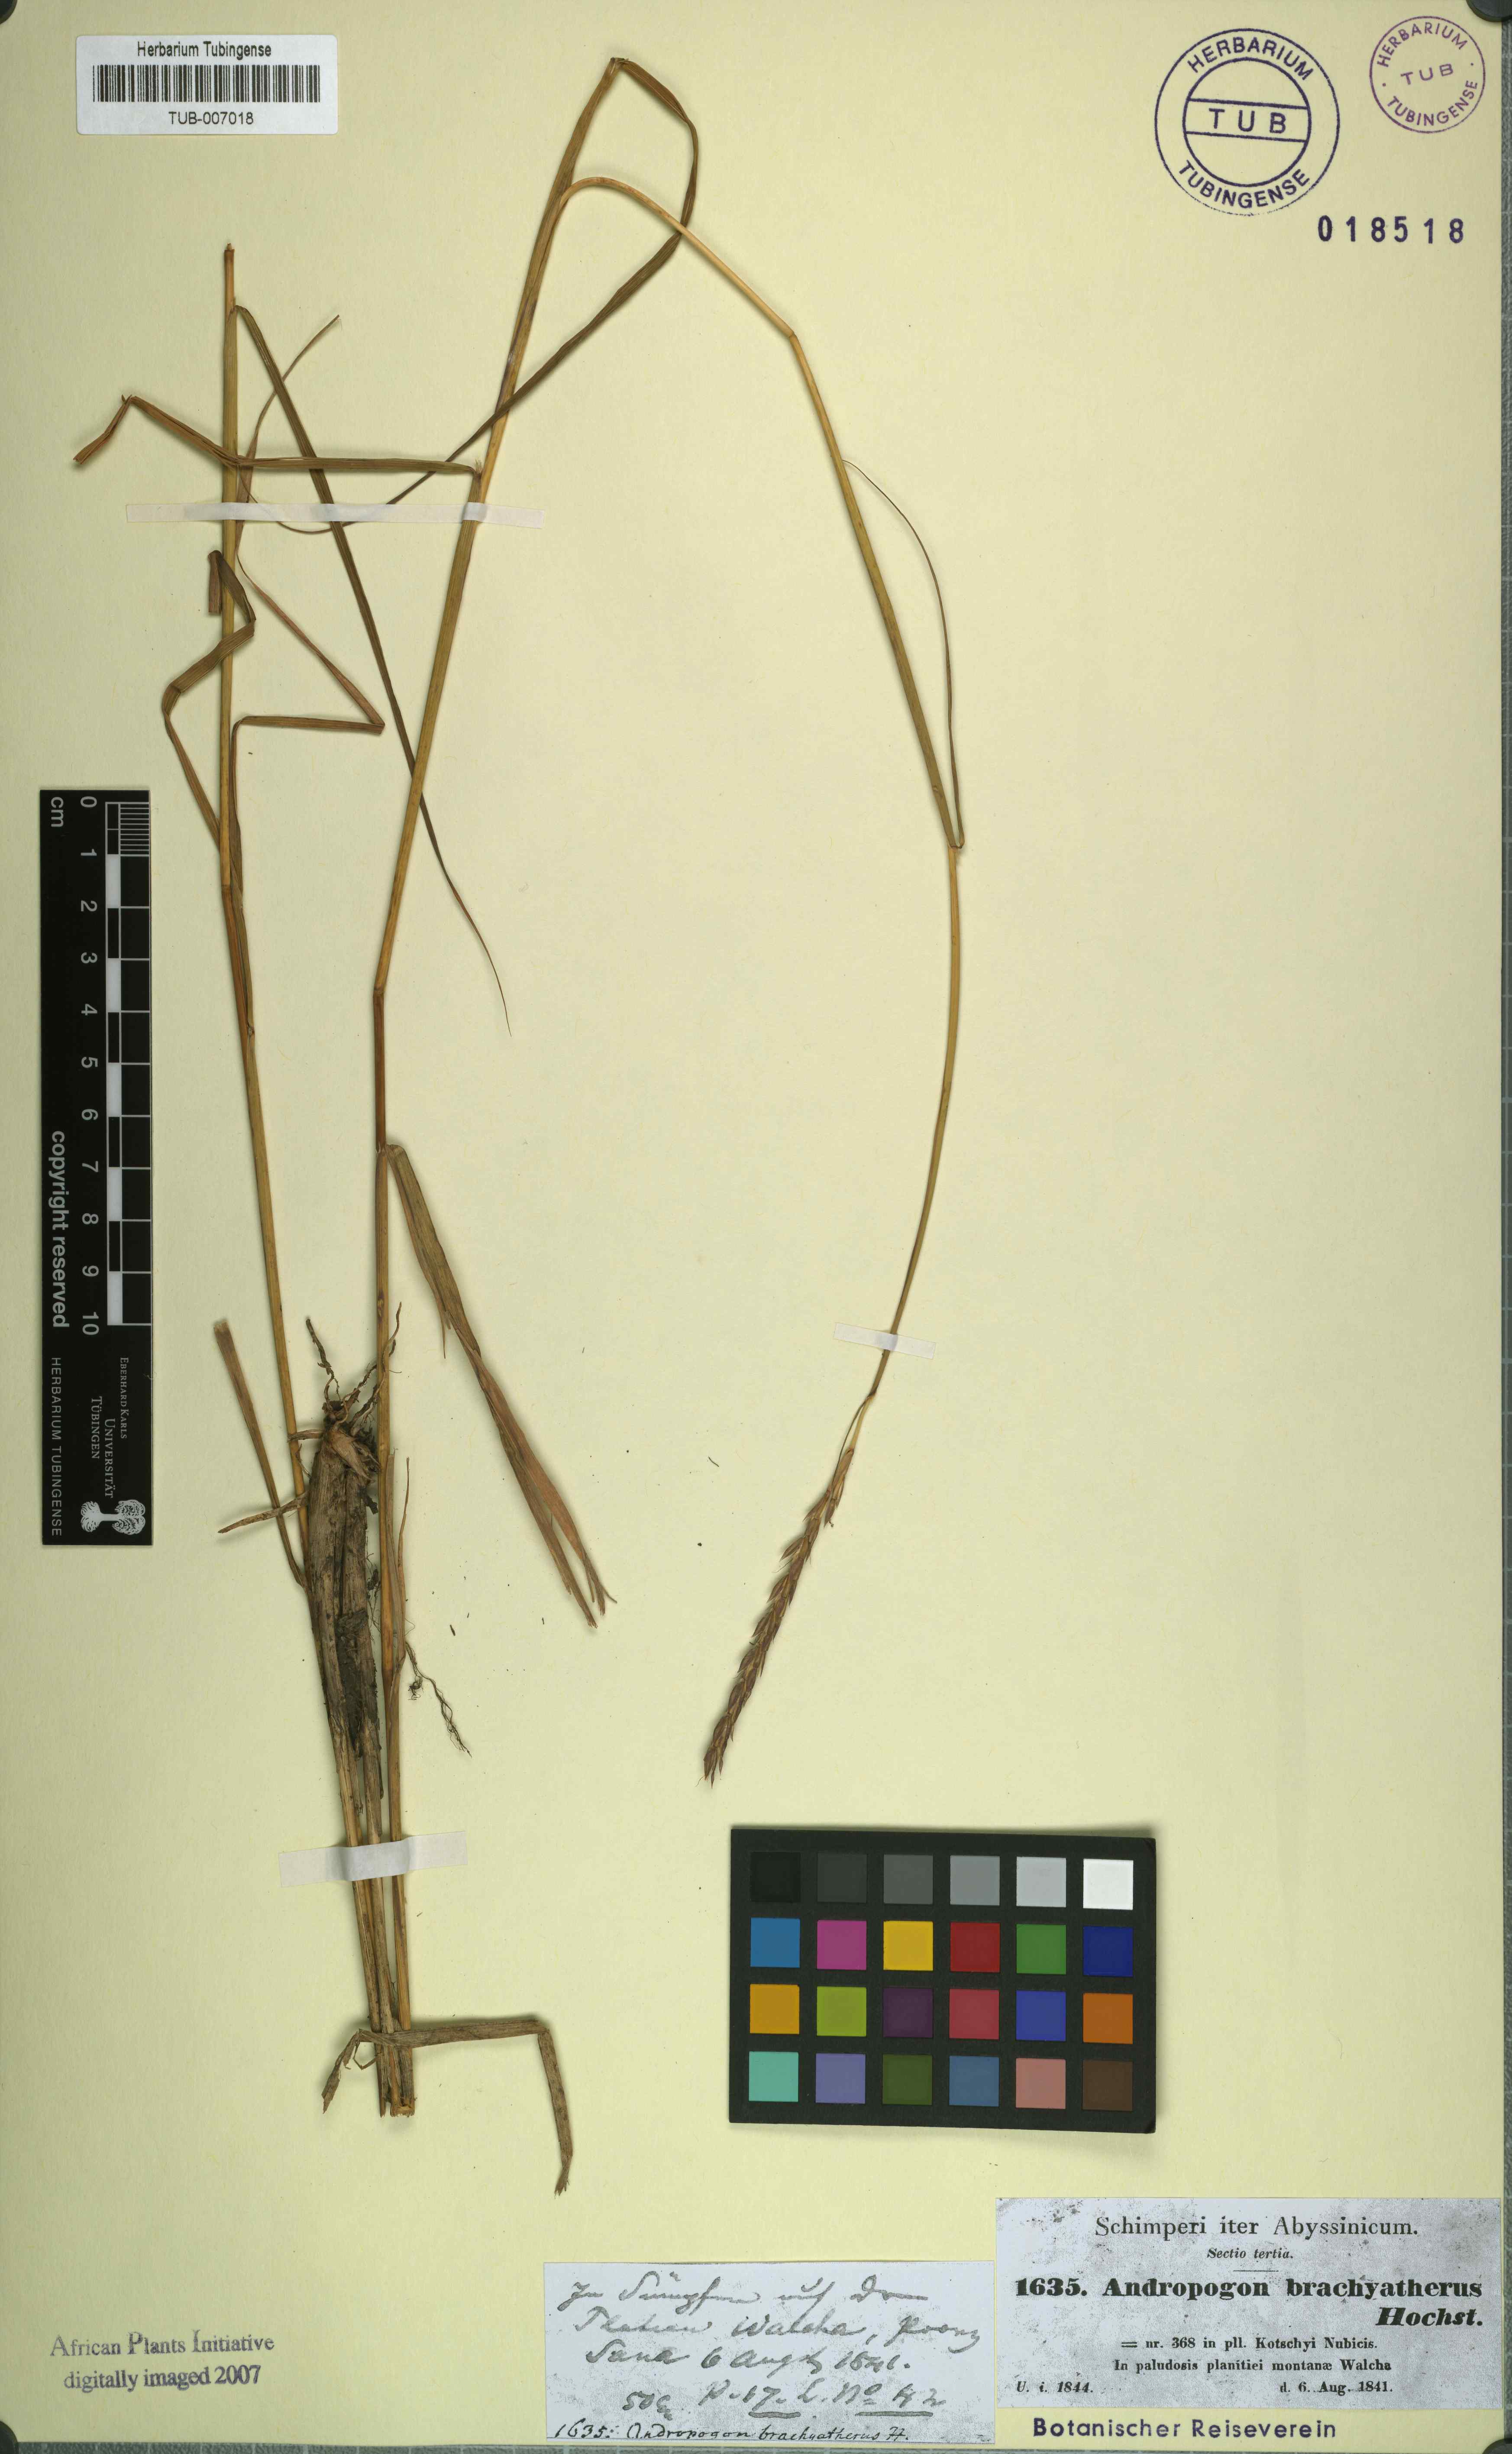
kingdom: Plantae
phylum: Tracheophyta
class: Liliopsida
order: Poales
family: Poaceae
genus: Ischaemum
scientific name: Ischaemum afrum
